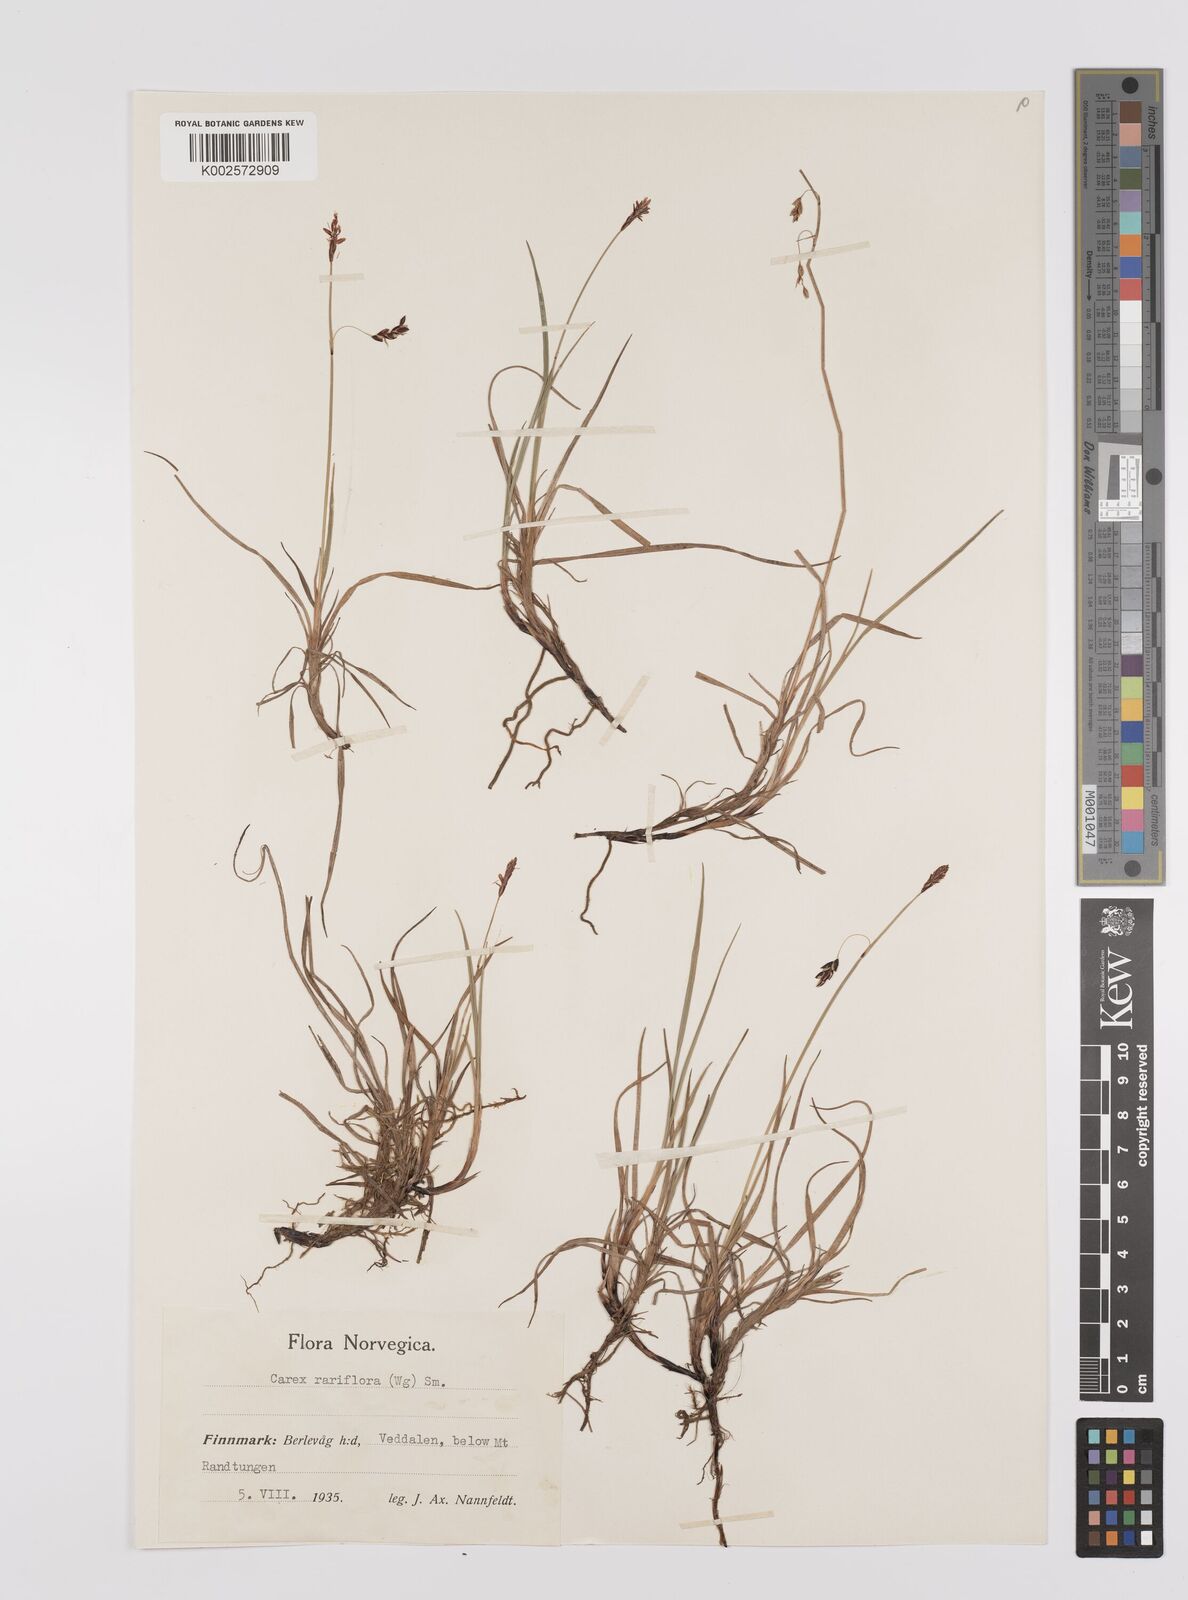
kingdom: Plantae
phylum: Tracheophyta
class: Liliopsida
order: Poales
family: Cyperaceae
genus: Carex
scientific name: Carex rariflora
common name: Loose-flowered alpine sedge
